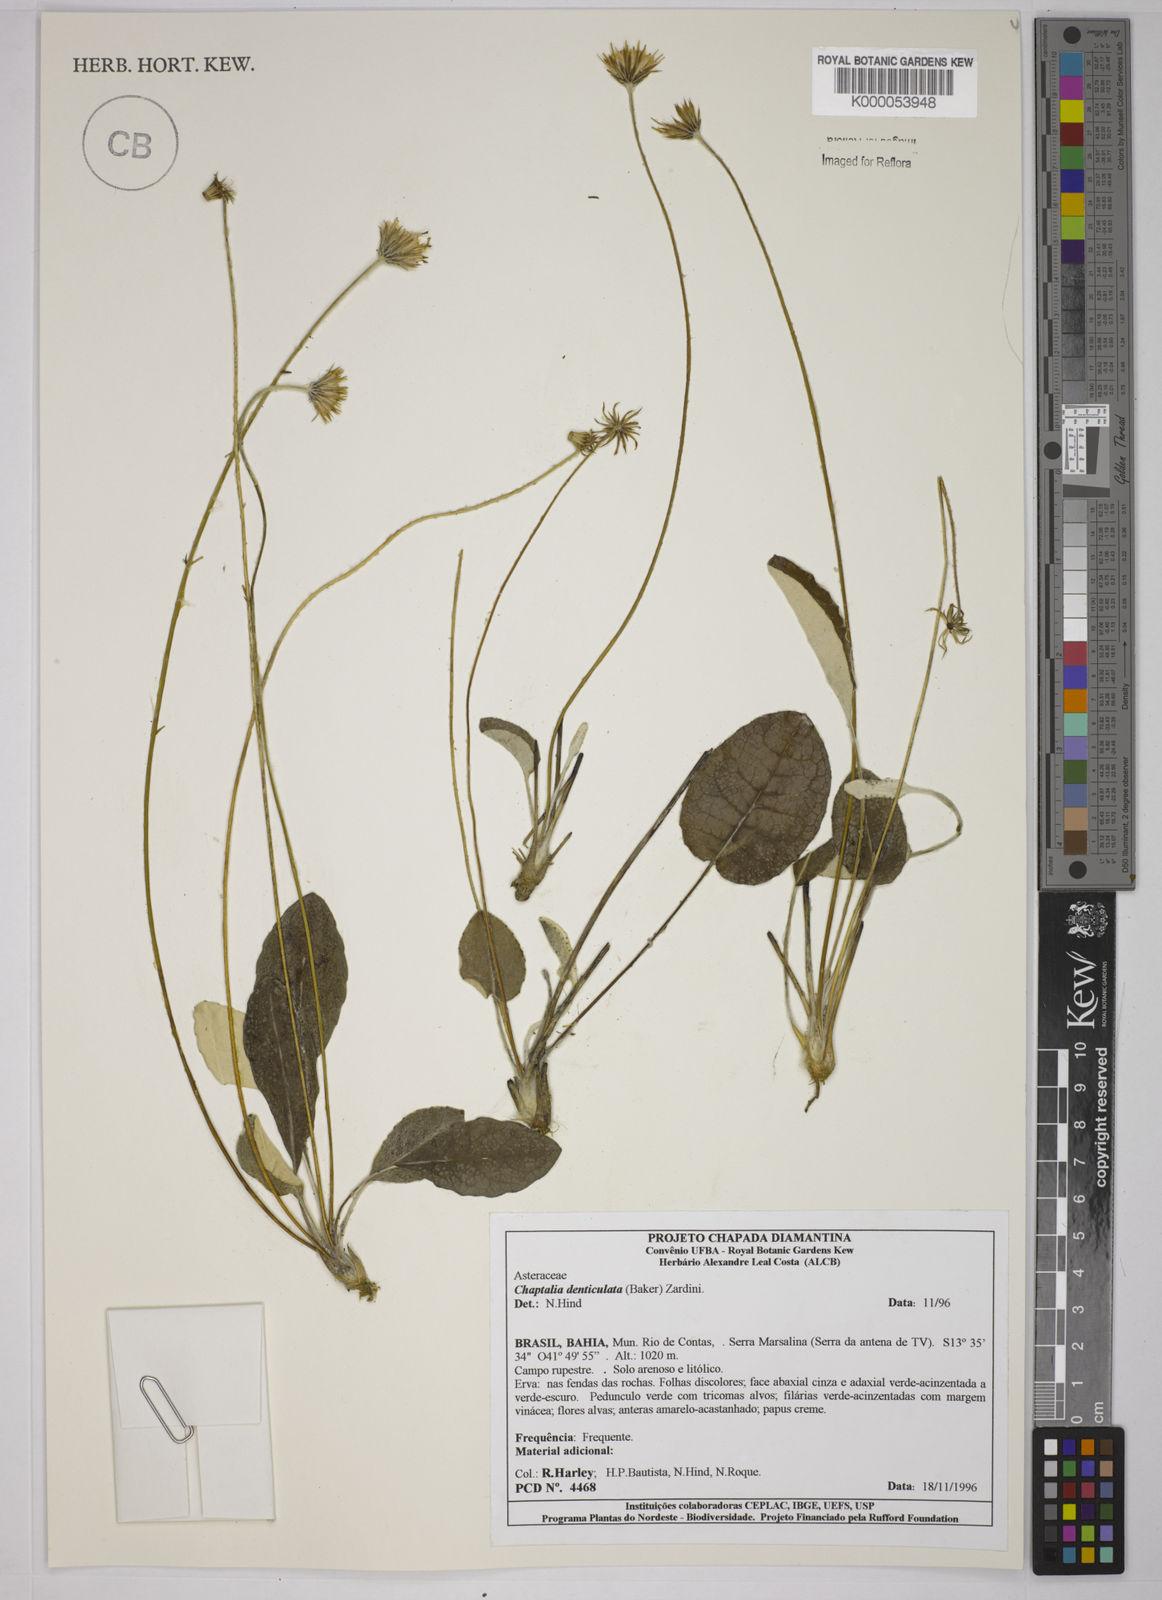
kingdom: Plantae
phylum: Tracheophyta
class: Magnoliopsida
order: Asterales
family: Asteraceae
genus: Chaptalia
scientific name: Chaptalia denticulata
